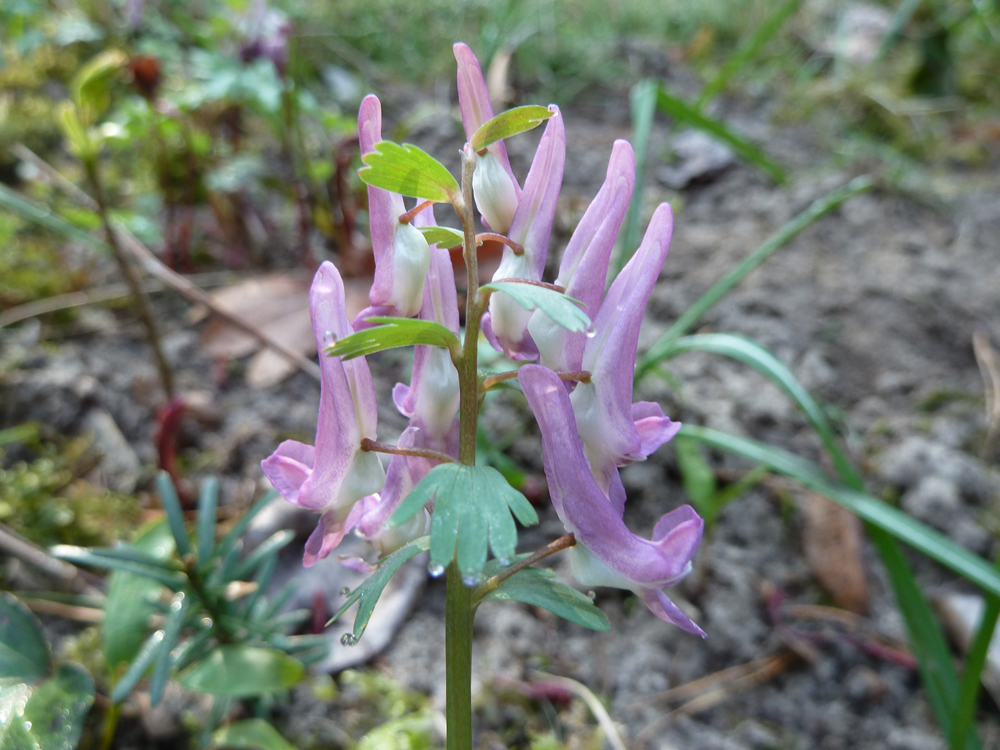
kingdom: Plantae
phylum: Tracheophyta
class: Magnoliopsida
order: Ranunculales
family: Papaveraceae
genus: Corydalis
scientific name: Corydalis solida
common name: Bird-in-a-bush
